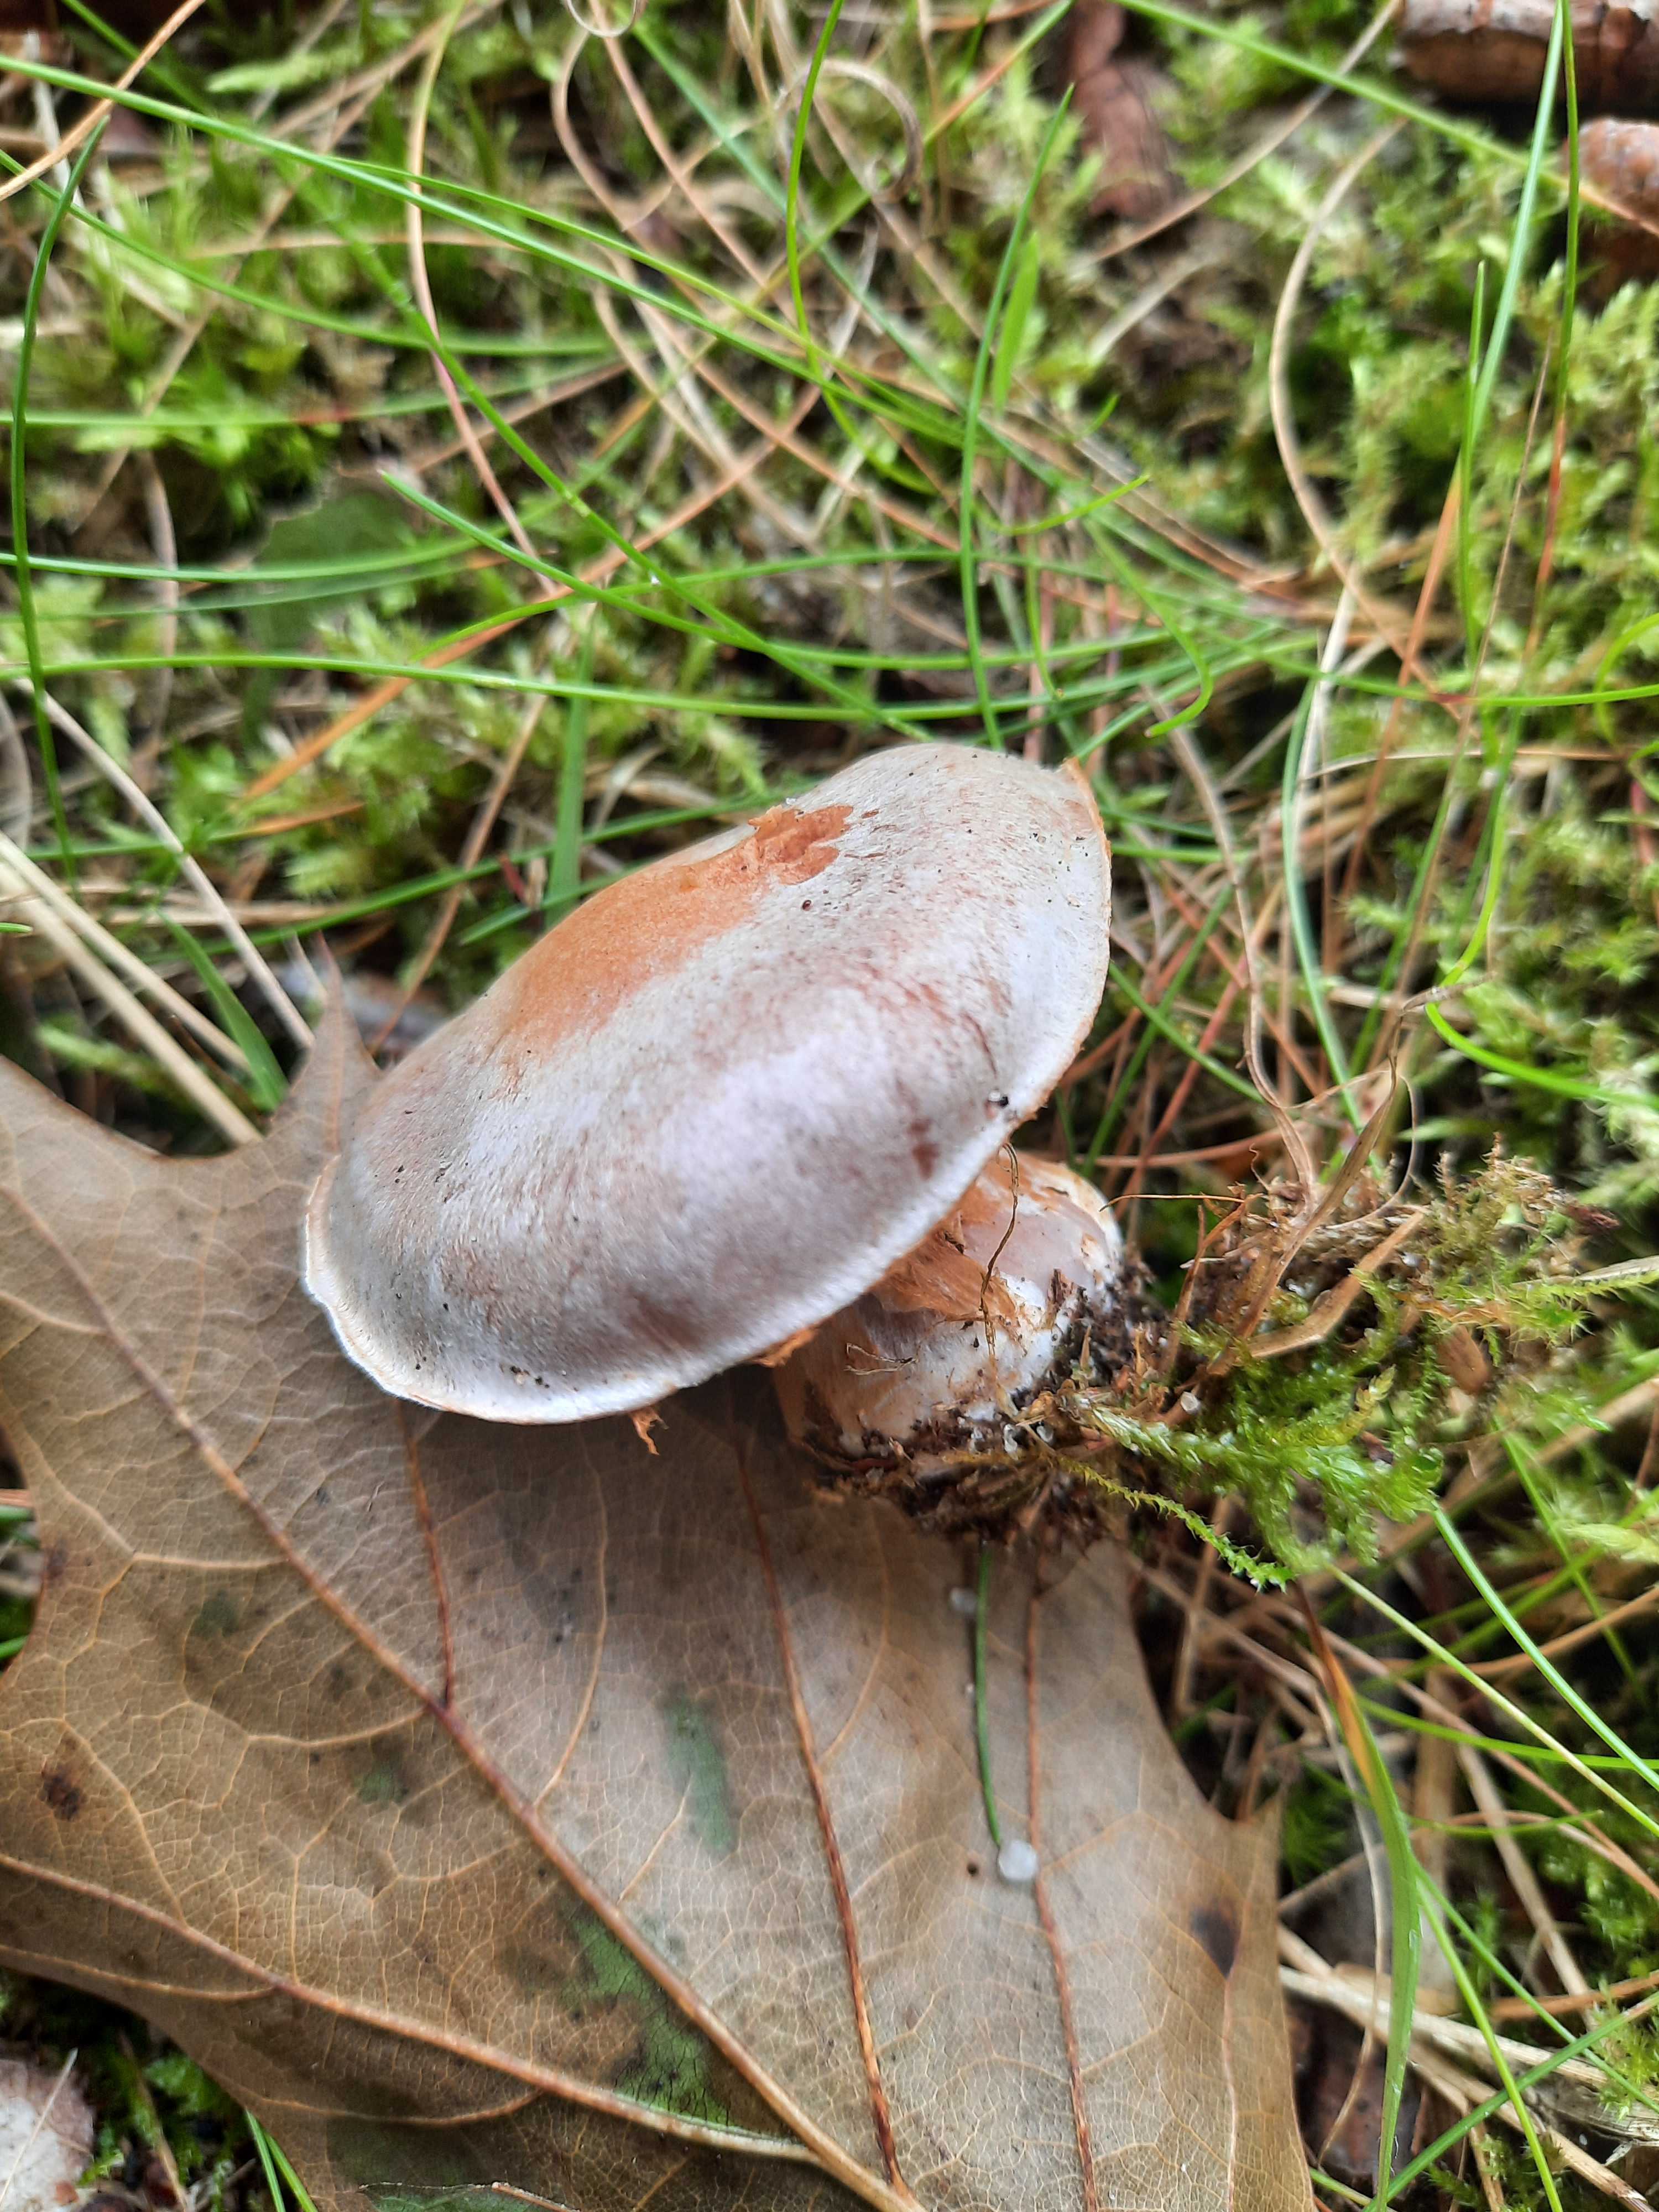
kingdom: Fungi
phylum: Basidiomycota
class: Agaricomycetes
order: Agaricales
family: Cortinariaceae
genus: Cortinarius
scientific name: Cortinarius subsedens
